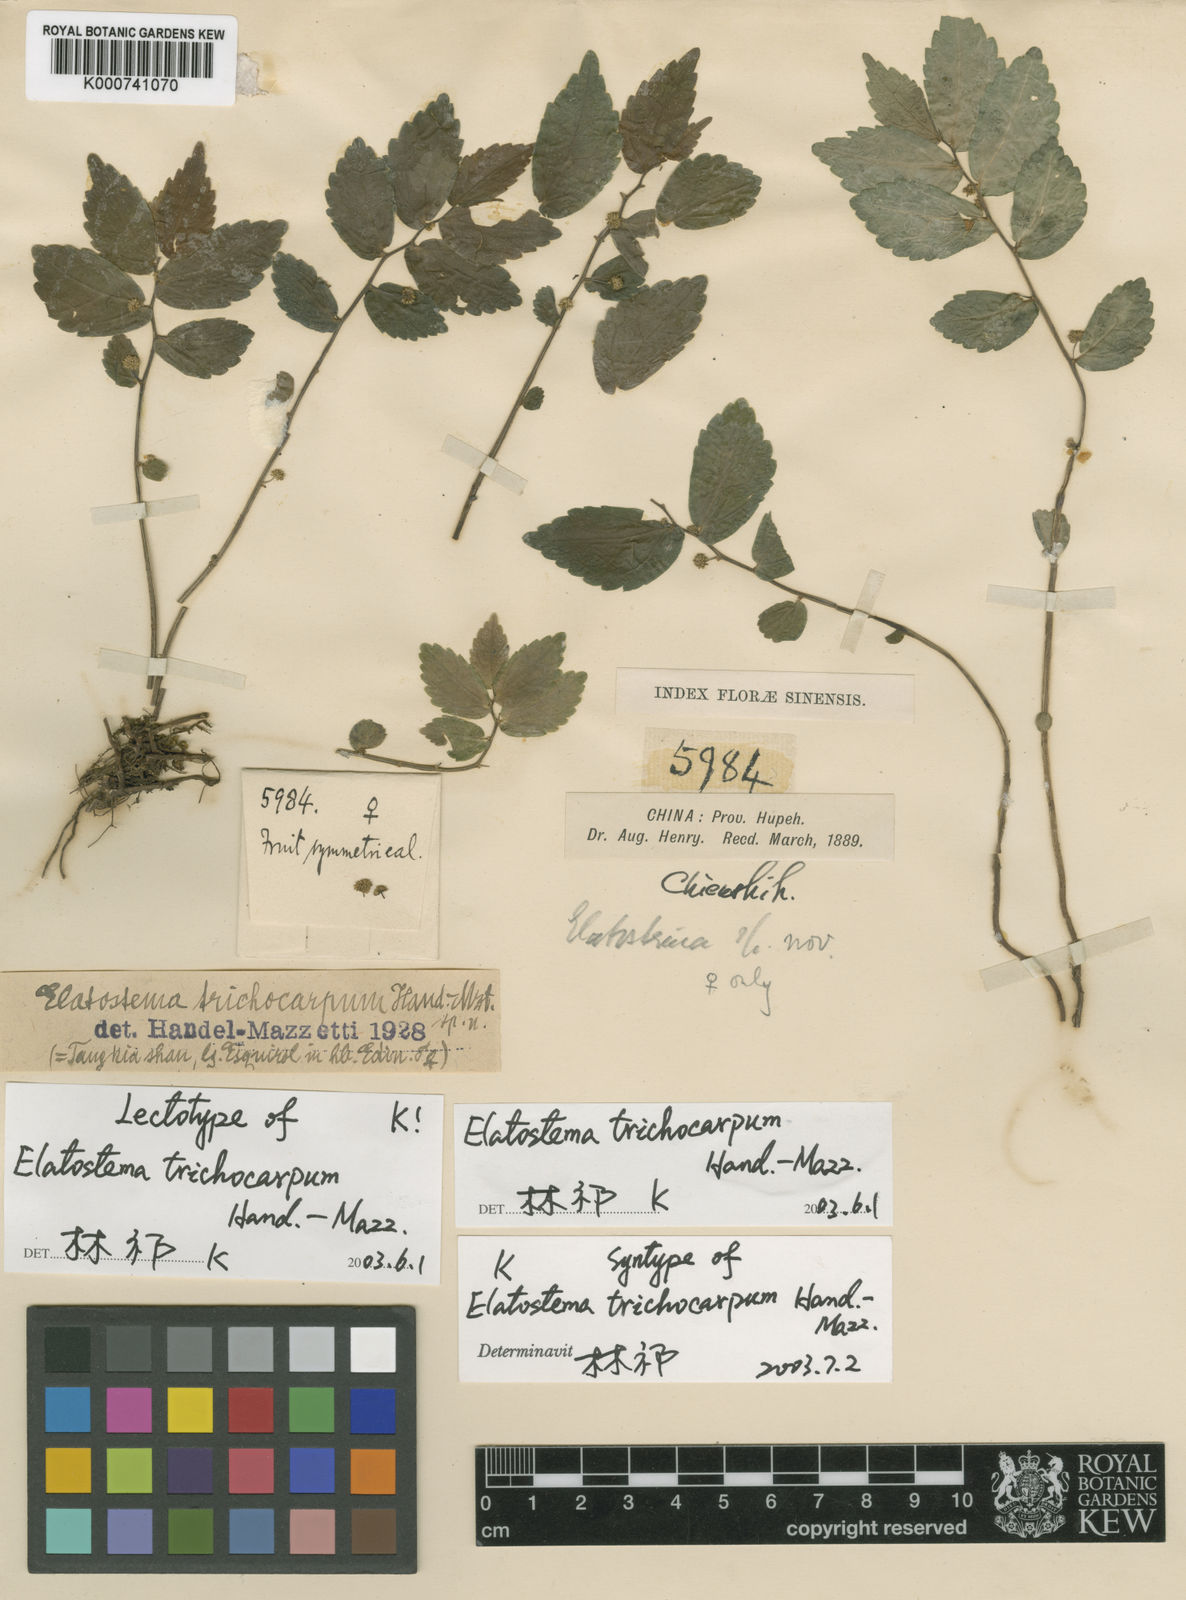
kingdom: Plantae
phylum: Tracheophyta
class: Magnoliopsida
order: Rosales
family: Urticaceae
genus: Elatostema
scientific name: Elatostema trichocarpum
